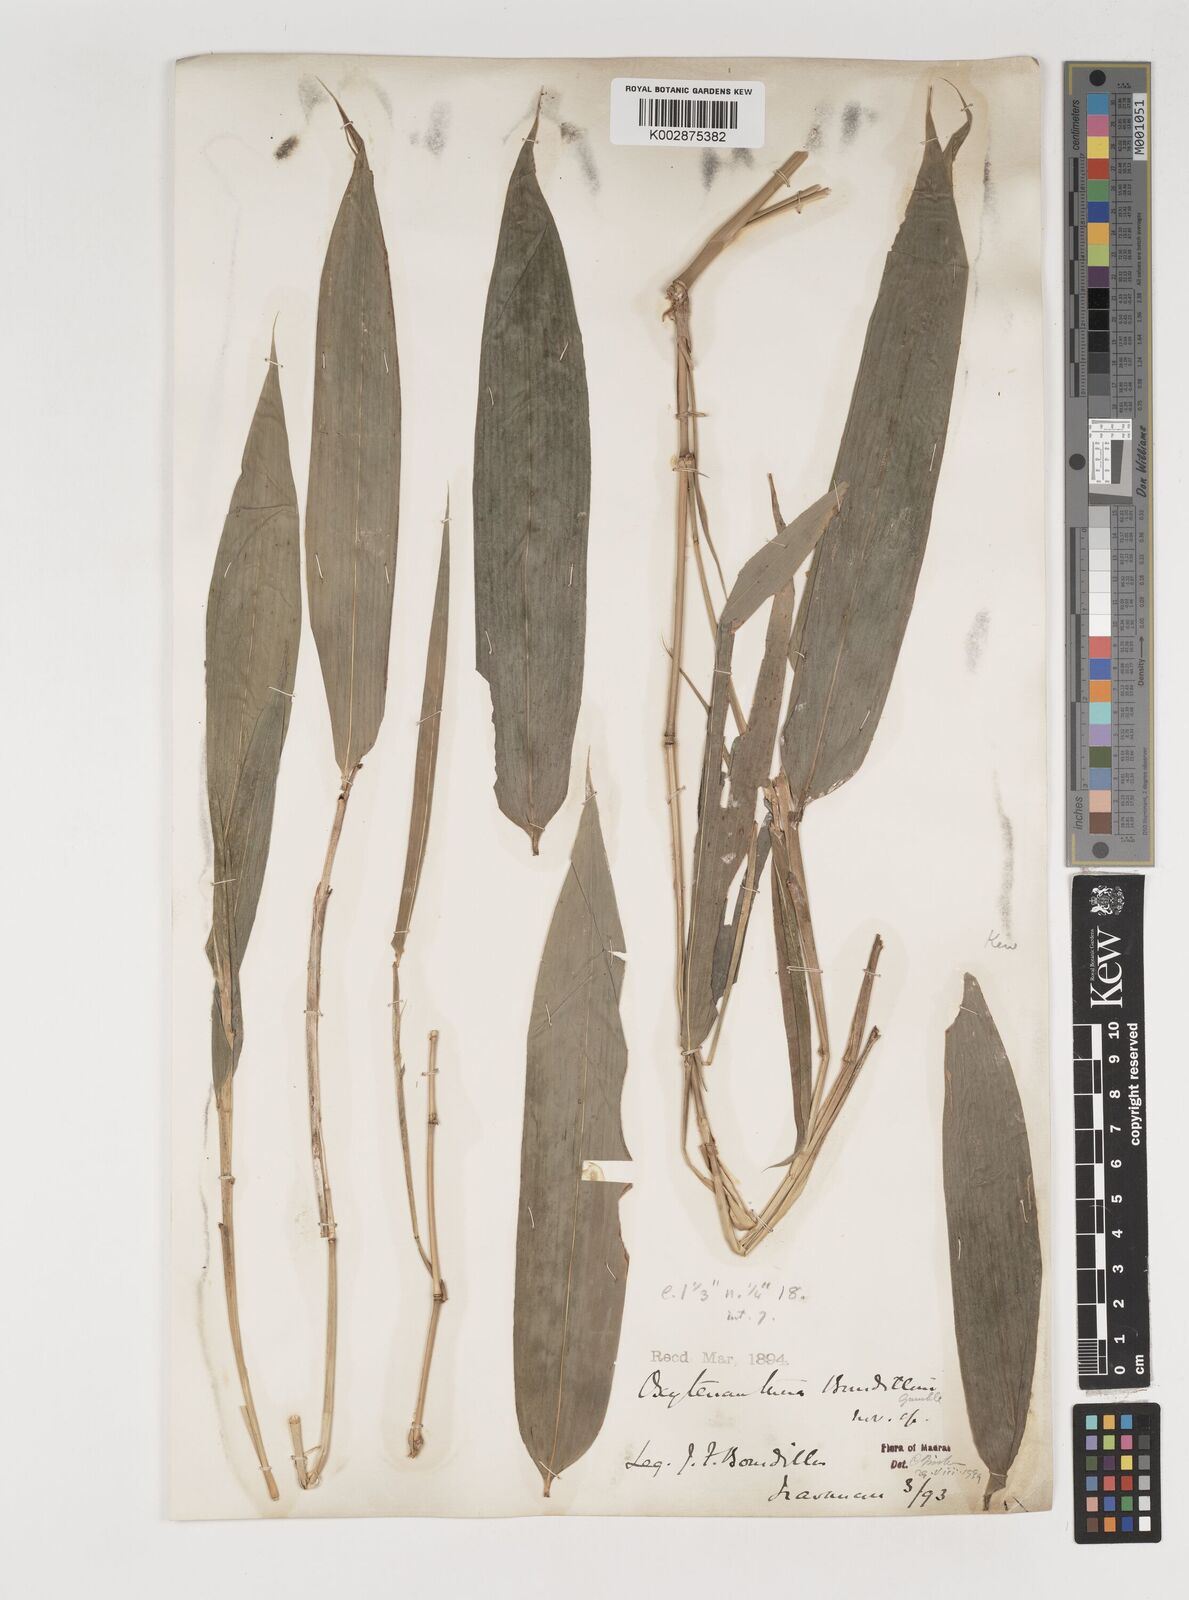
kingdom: Plantae
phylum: Tracheophyta
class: Liliopsida
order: Poales
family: Poaceae
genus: Dendrocalamus
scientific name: Dendrocalamus
